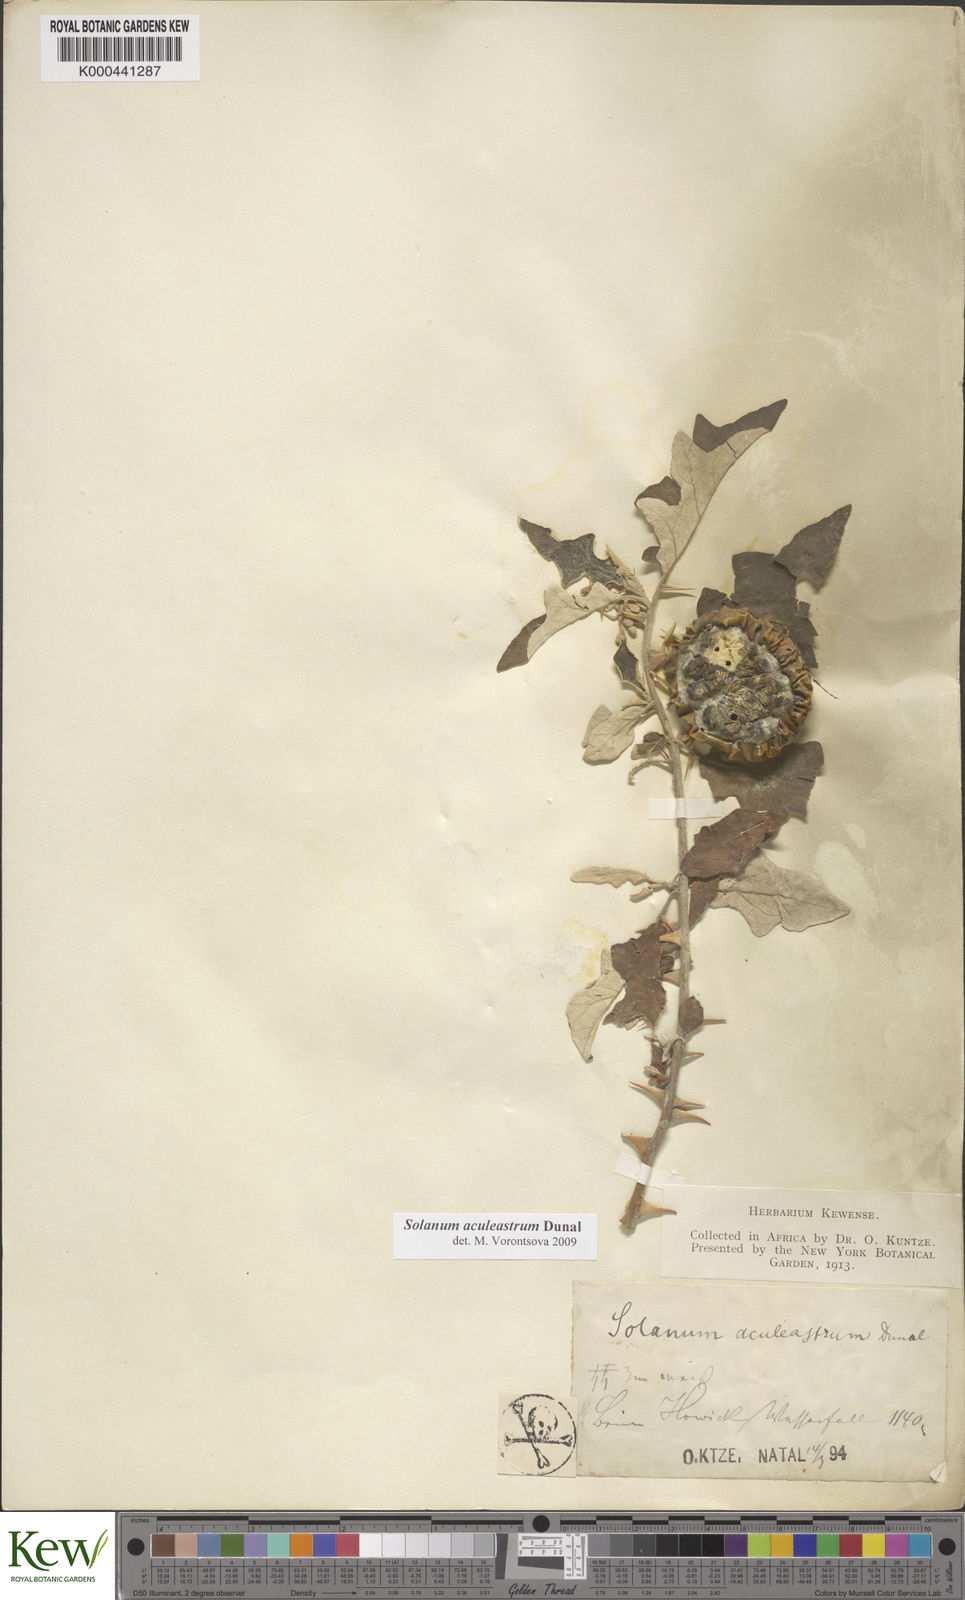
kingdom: Plantae
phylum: Tracheophyta
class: Magnoliopsida
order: Solanales
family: Solanaceae
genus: Solanum
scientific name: Solanum aculeastrum
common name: Goat bitter-apple
